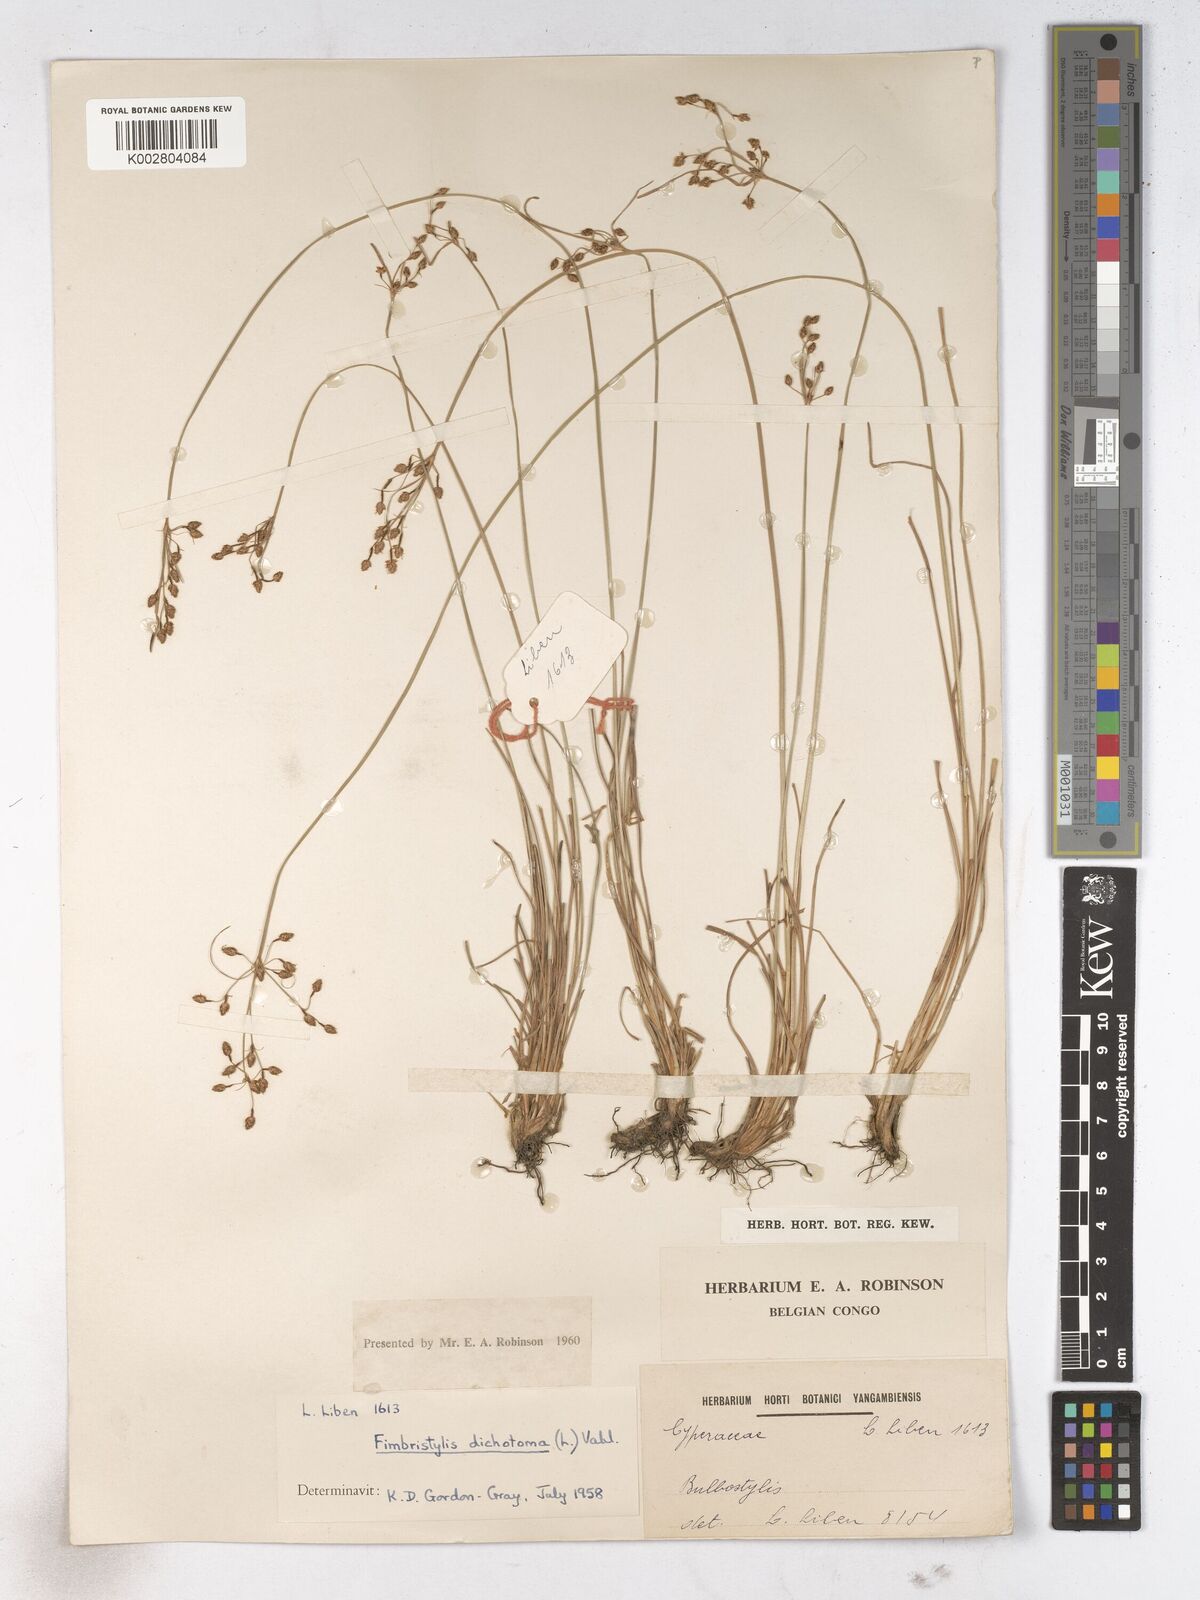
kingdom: Plantae
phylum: Tracheophyta
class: Liliopsida
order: Poales
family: Cyperaceae
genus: Fimbristylis
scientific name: Fimbristylis dichotoma
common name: Forked fimbry
